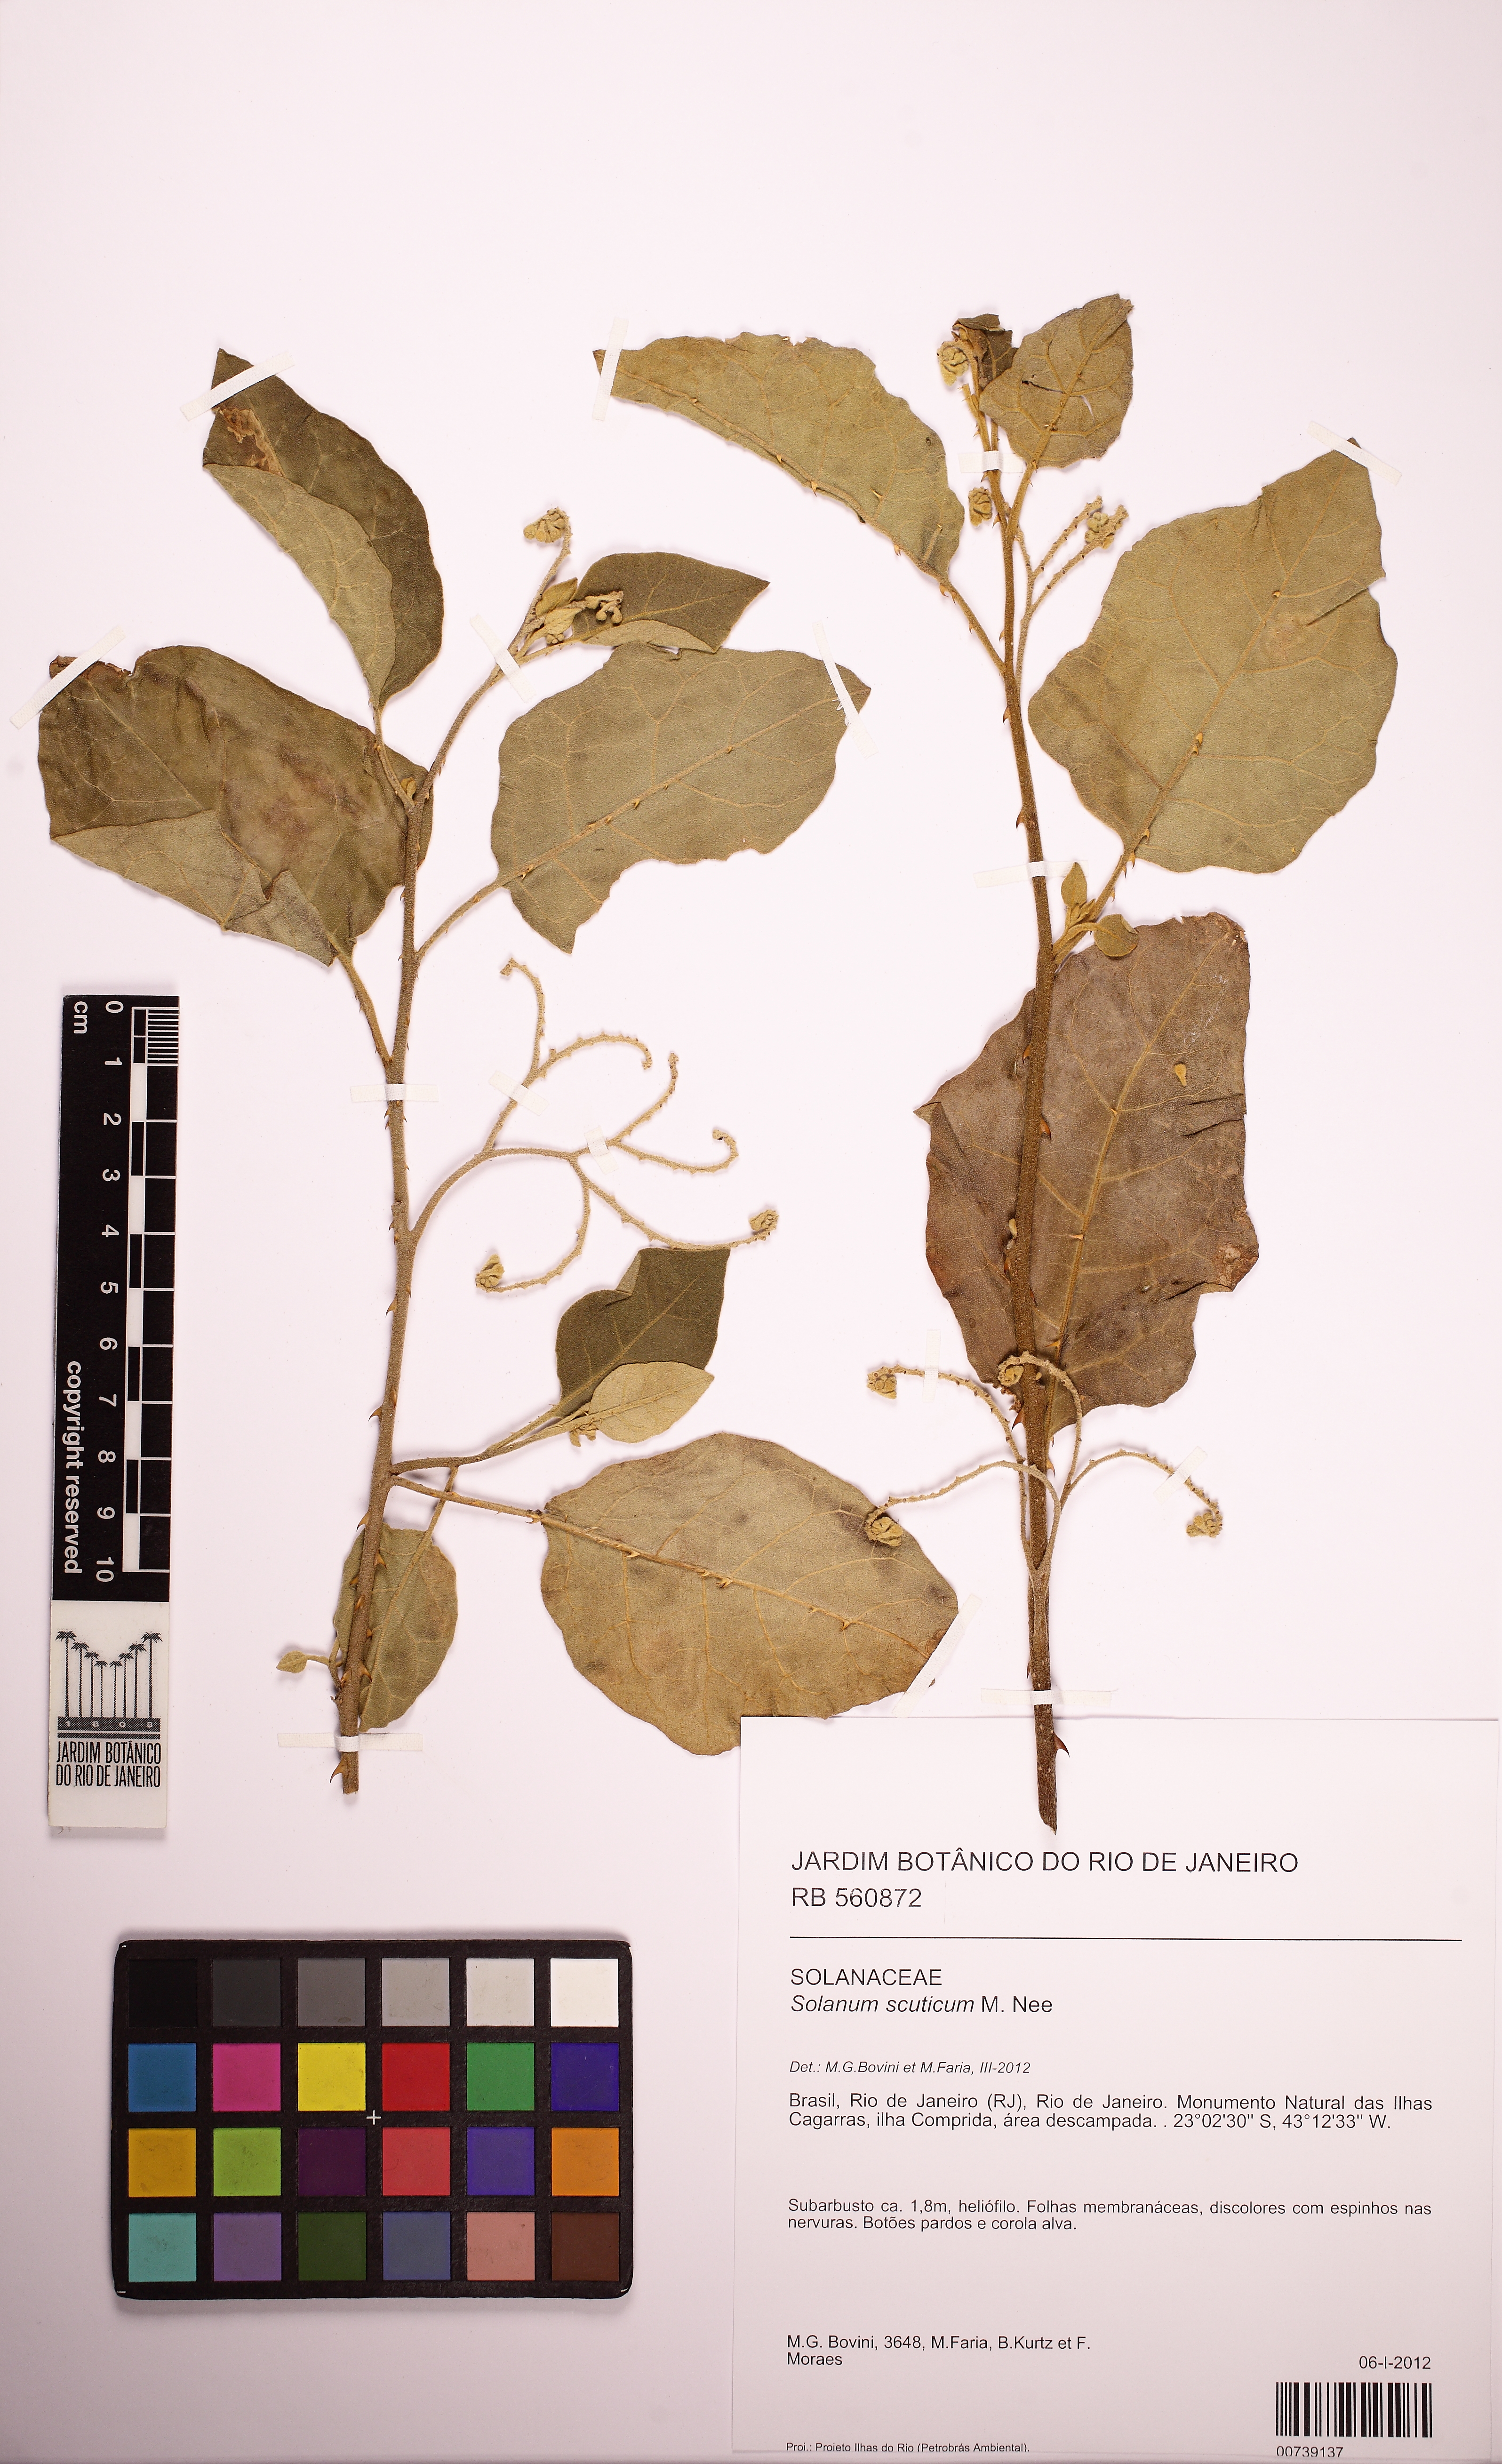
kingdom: Plantae
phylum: Tracheophyta
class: Magnoliopsida
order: Solanales
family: Solanaceae
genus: Solanum
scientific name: Solanum scuticum
